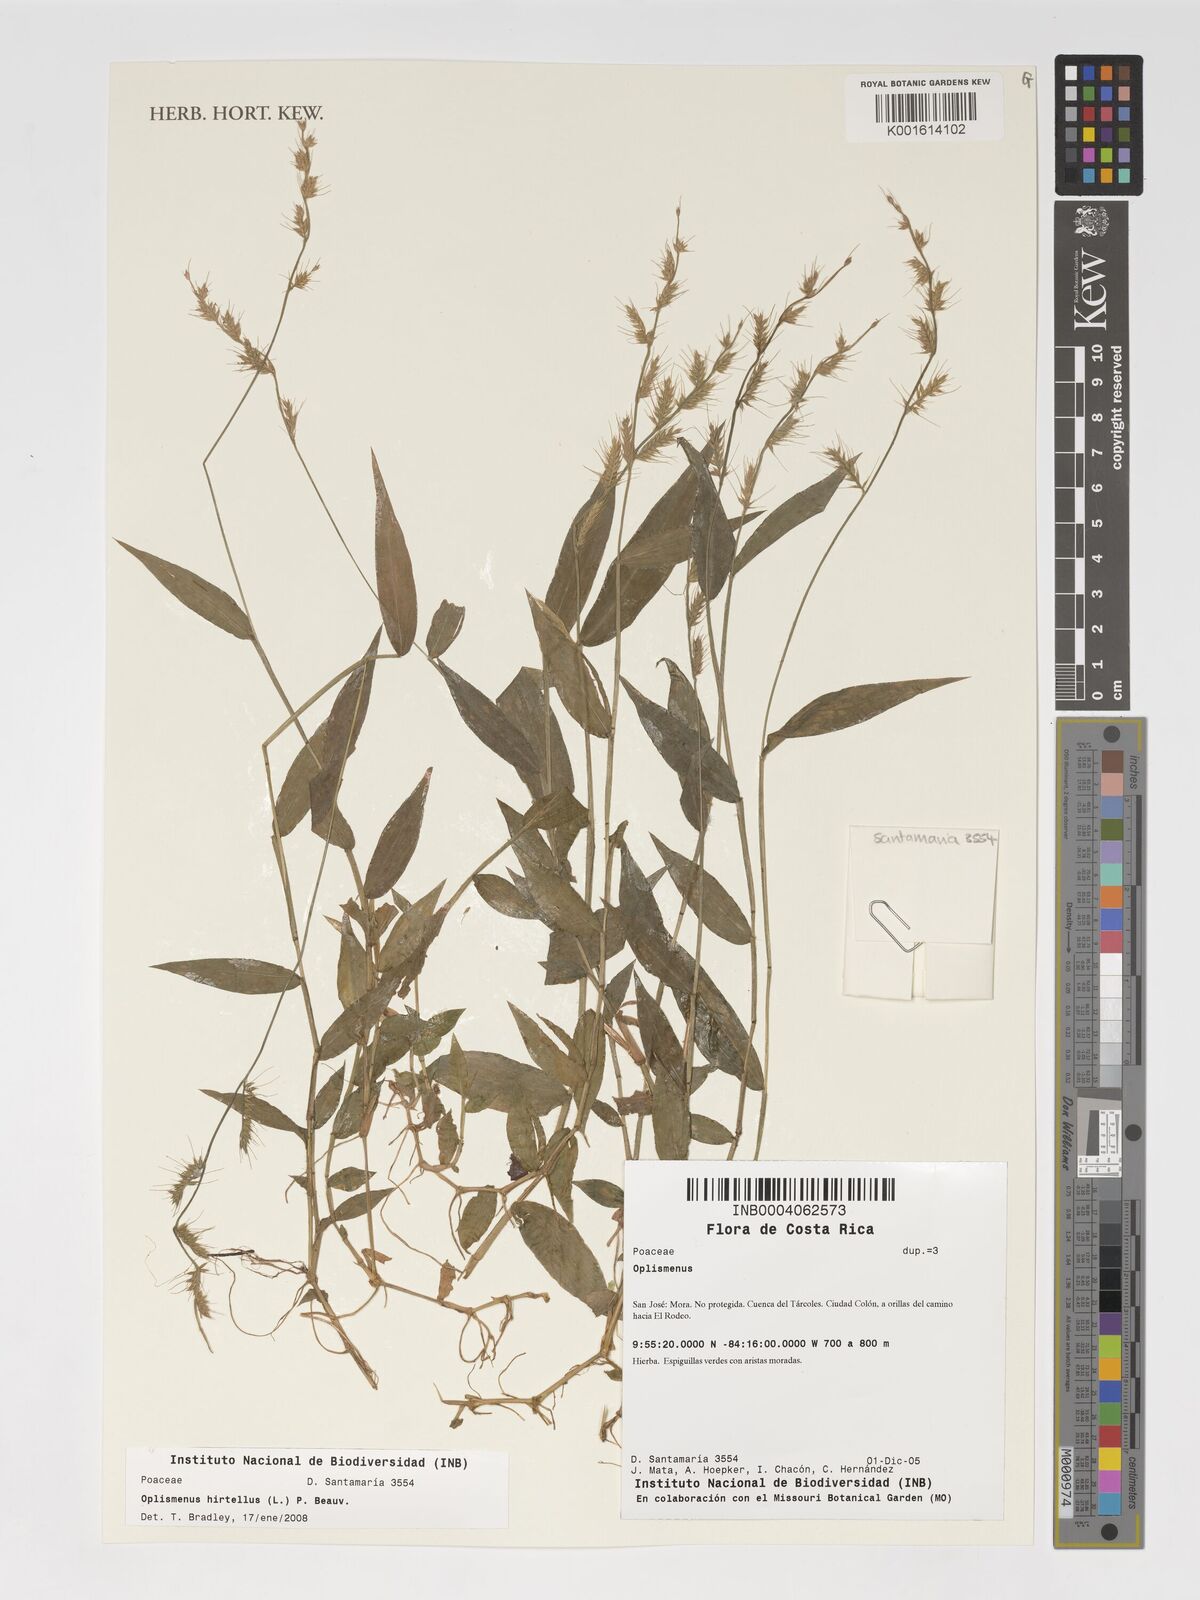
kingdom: Plantae
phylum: Tracheophyta
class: Liliopsida
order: Poales
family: Poaceae
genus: Oplismenus
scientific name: Oplismenus hirtellus
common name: Basketgrass
